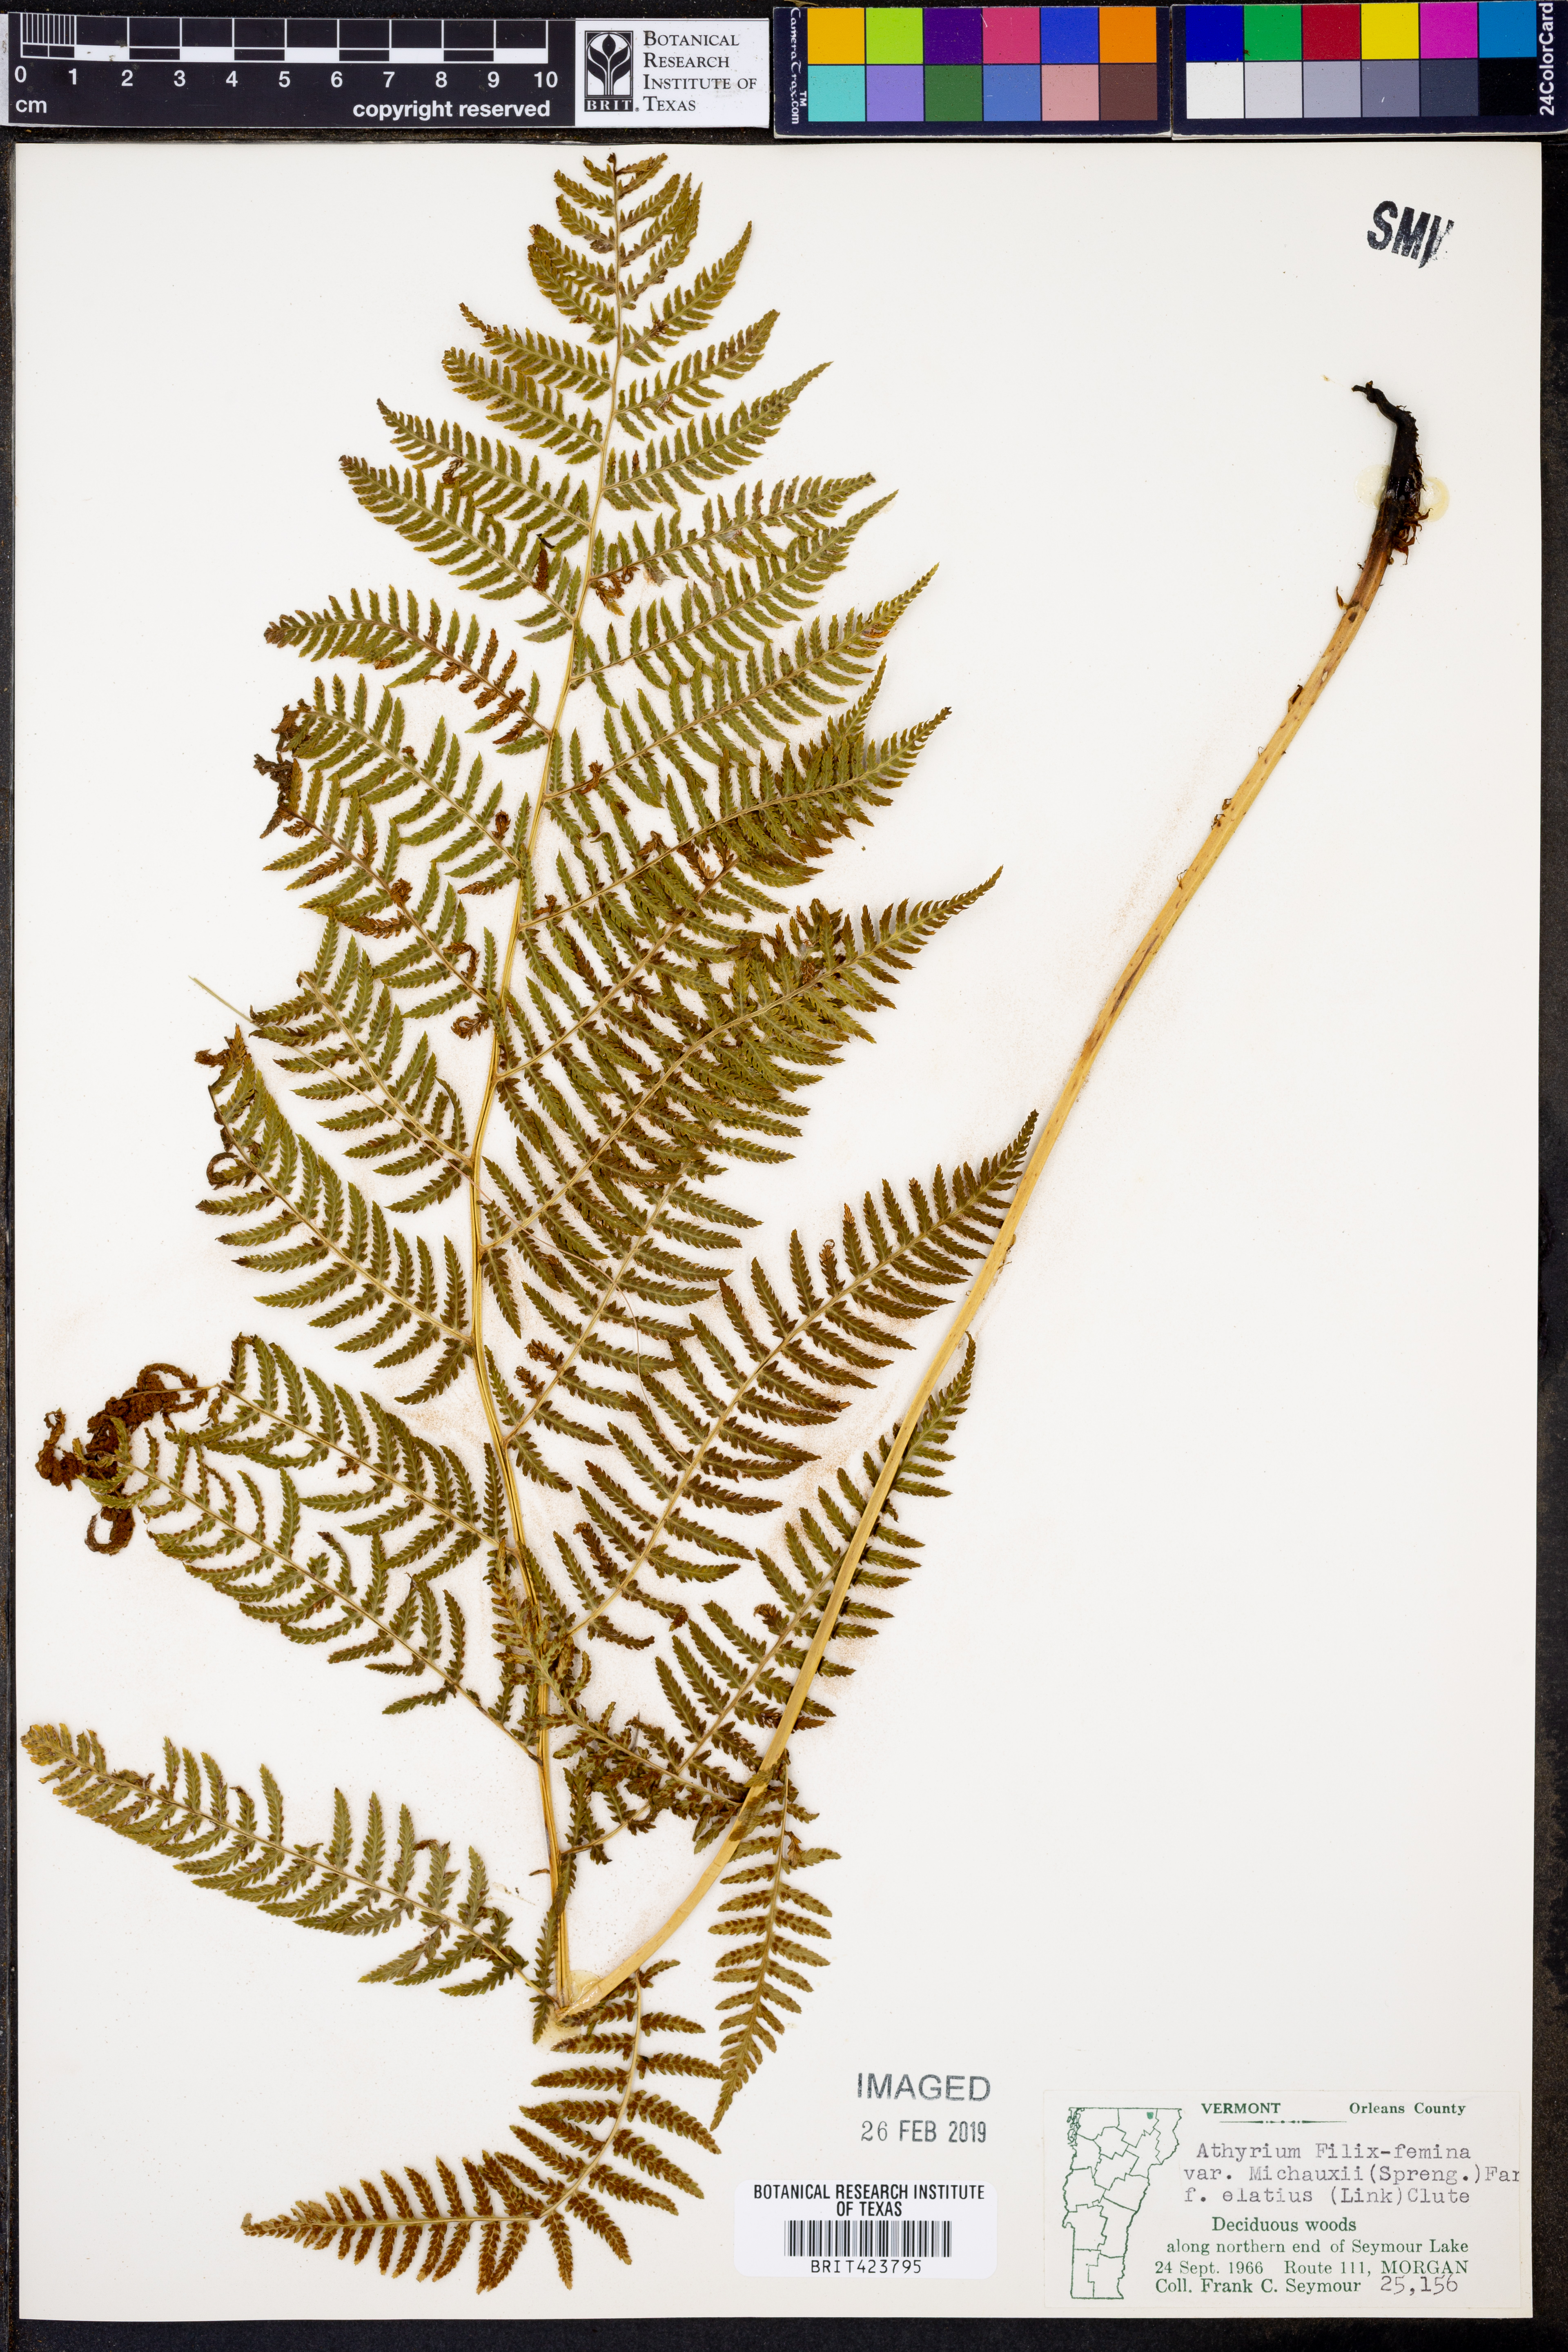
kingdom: Plantae
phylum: Tracheophyta
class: Polypodiopsida
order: Polypodiales
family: Athyriaceae
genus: Athyrium
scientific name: Athyrium angustum
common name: Northern lady fern
